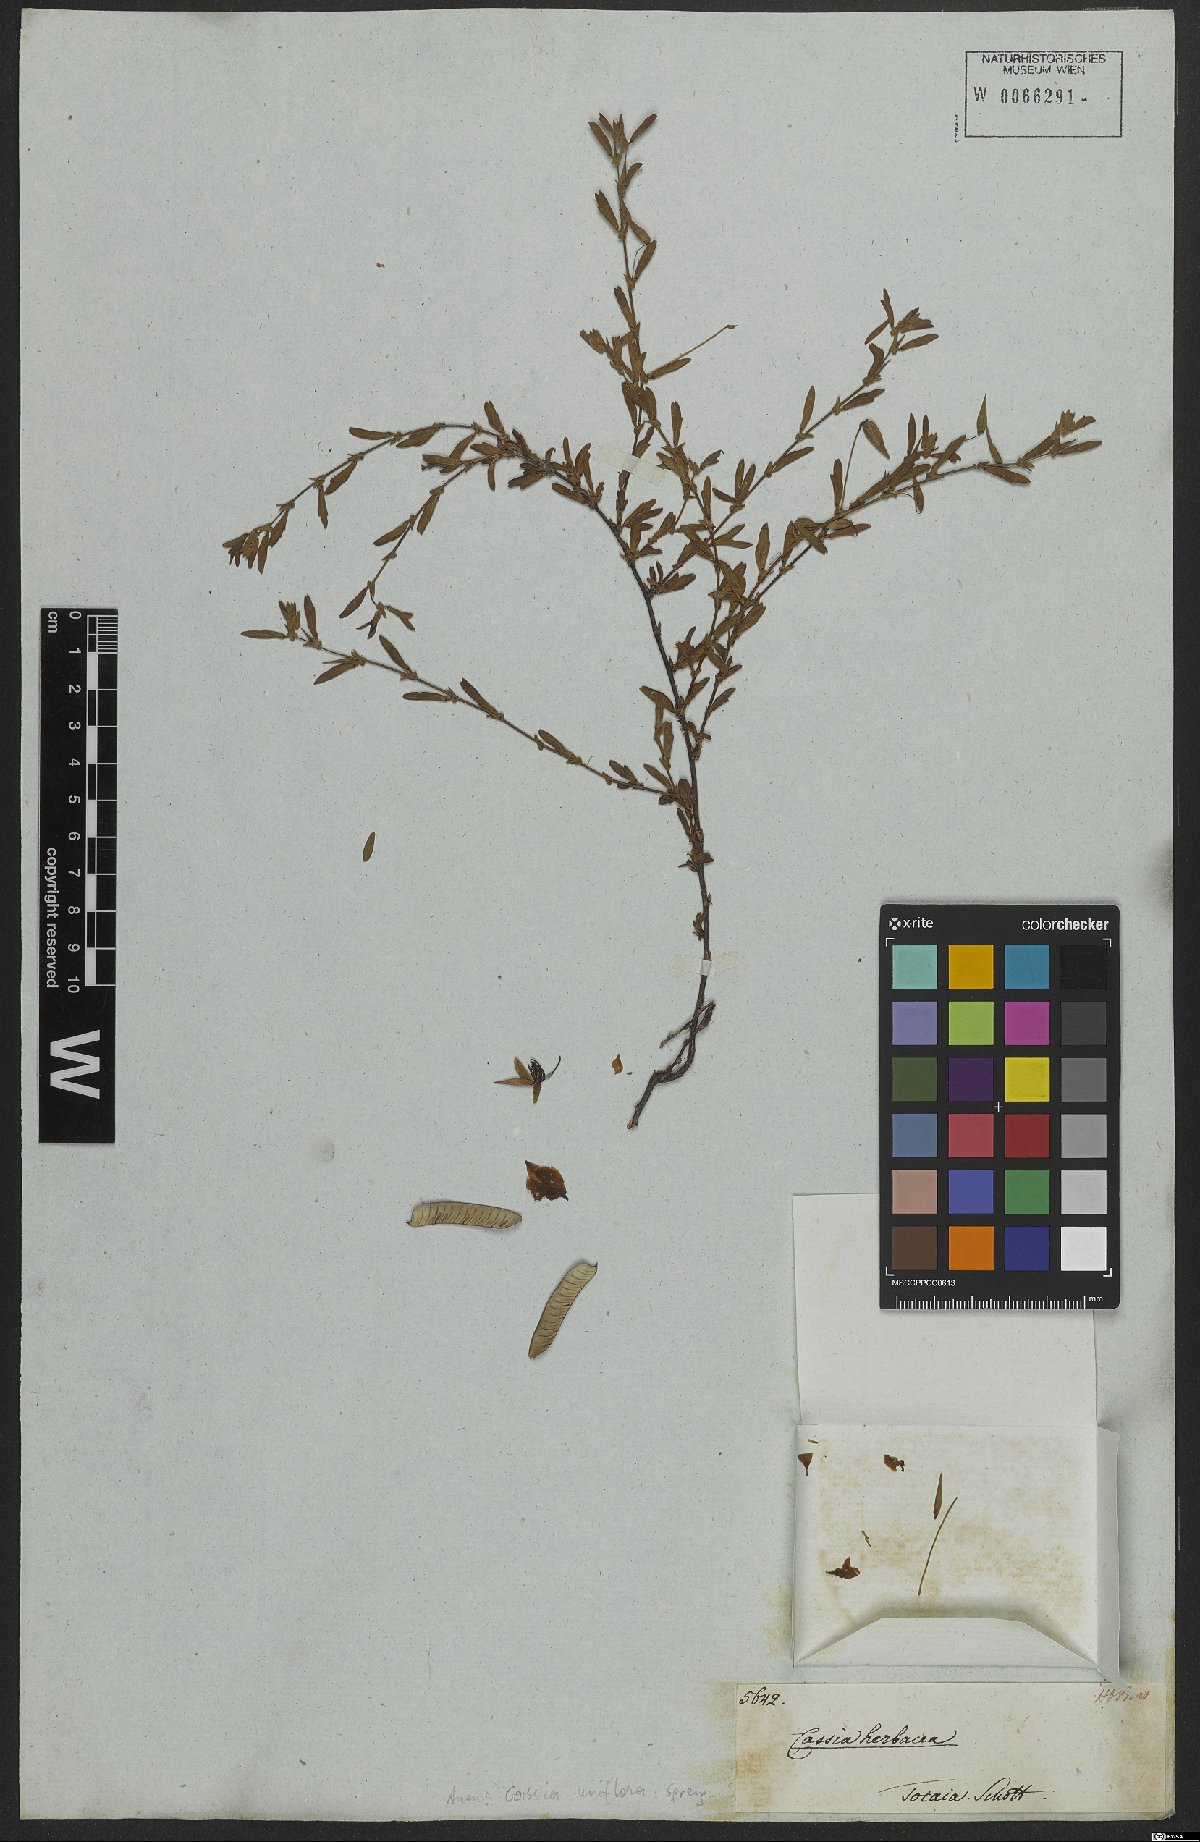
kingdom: Plantae
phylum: Tracheophyta
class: Magnoliopsida
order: Fabales
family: Fabaceae
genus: Senna
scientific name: Senna uniflora
